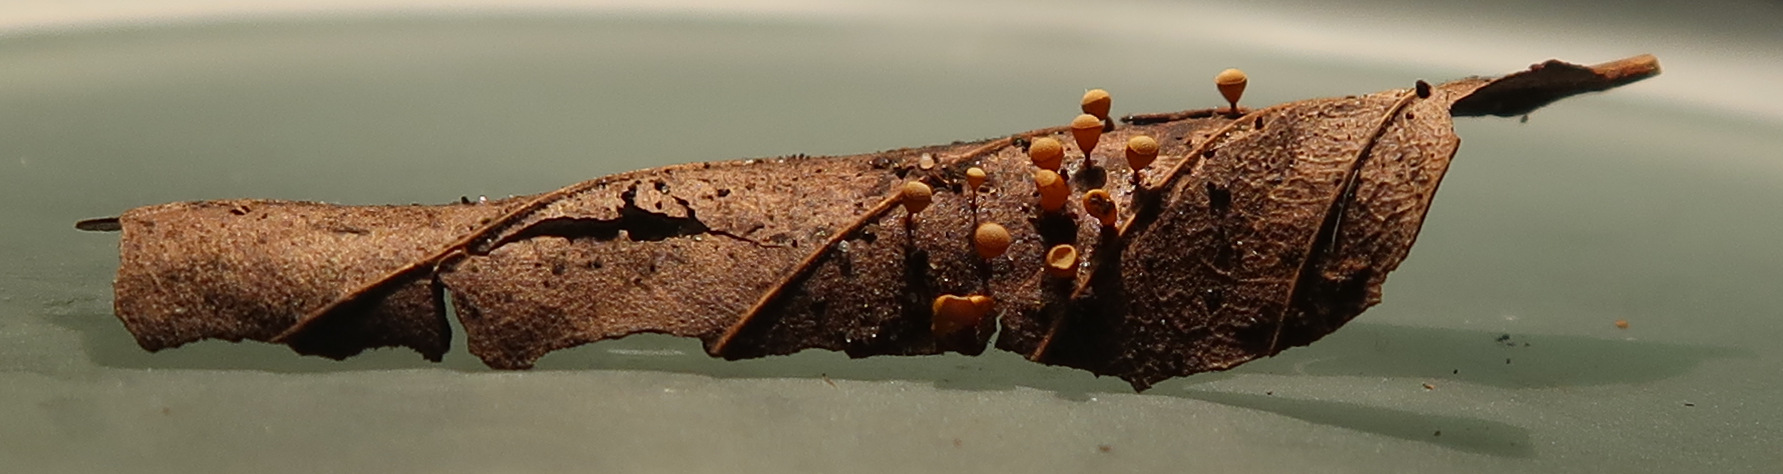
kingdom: Protozoa
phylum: Mycetozoa
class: Myxomycetes
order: Physarales
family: Physaraceae
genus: Craterium
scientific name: Craterium minutum
